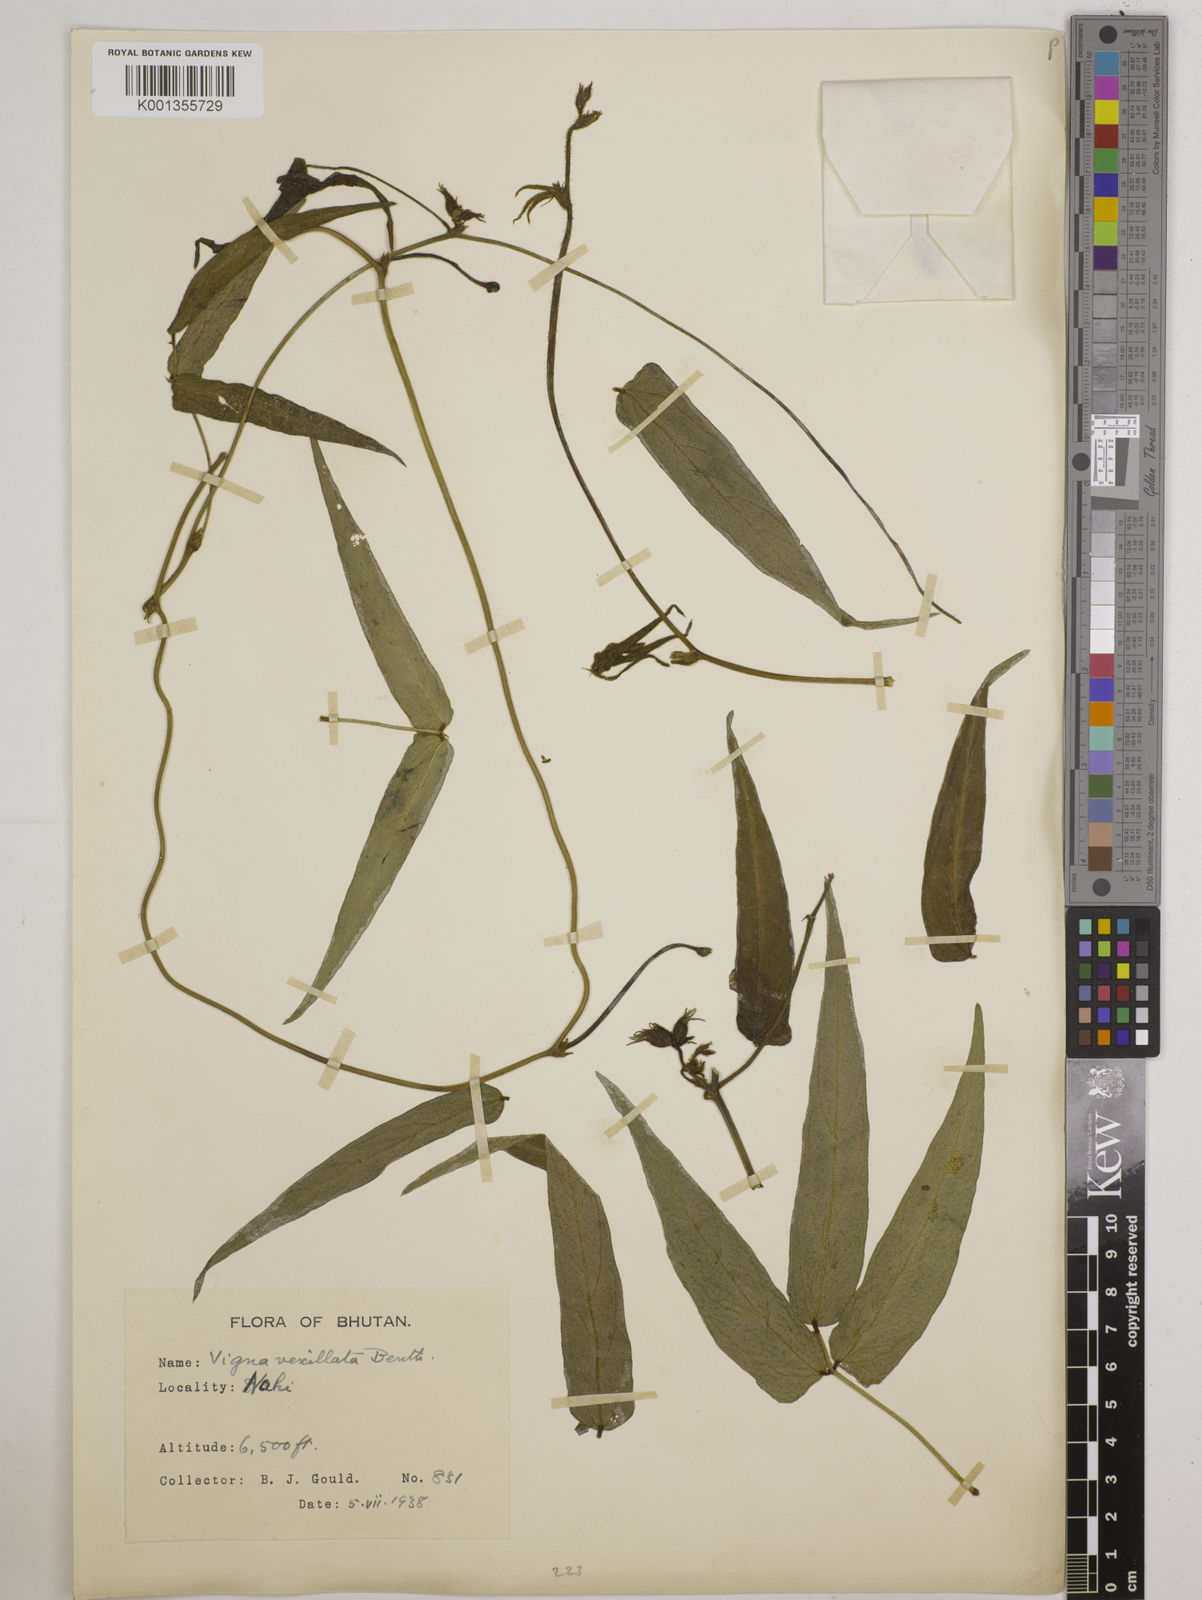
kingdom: Plantae
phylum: Tracheophyta
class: Magnoliopsida
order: Fabales
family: Fabaceae
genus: Vigna
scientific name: Vigna vexillata
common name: Zombi pea
